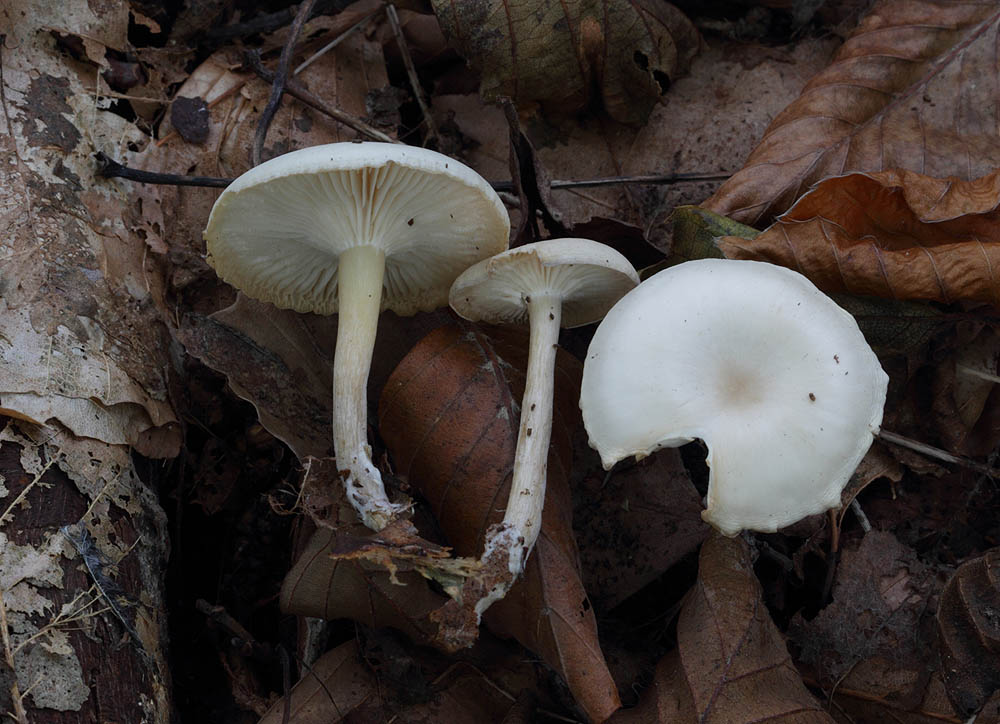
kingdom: Fungi
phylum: Basidiomycota
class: Agaricomycetes
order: Agaricales
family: Tricholomataceae
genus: Leucocybe
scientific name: Leucocybe candicans
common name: kridt-tragthat
